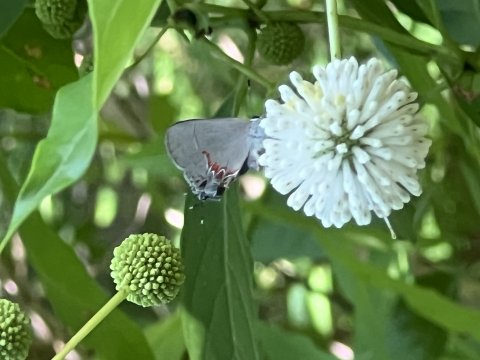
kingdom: Animalia
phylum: Arthropoda
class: Insecta
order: Lepidoptera
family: Lycaenidae
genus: Calycopis
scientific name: Calycopis isobeon
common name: Dusky-blue Groundstreak
